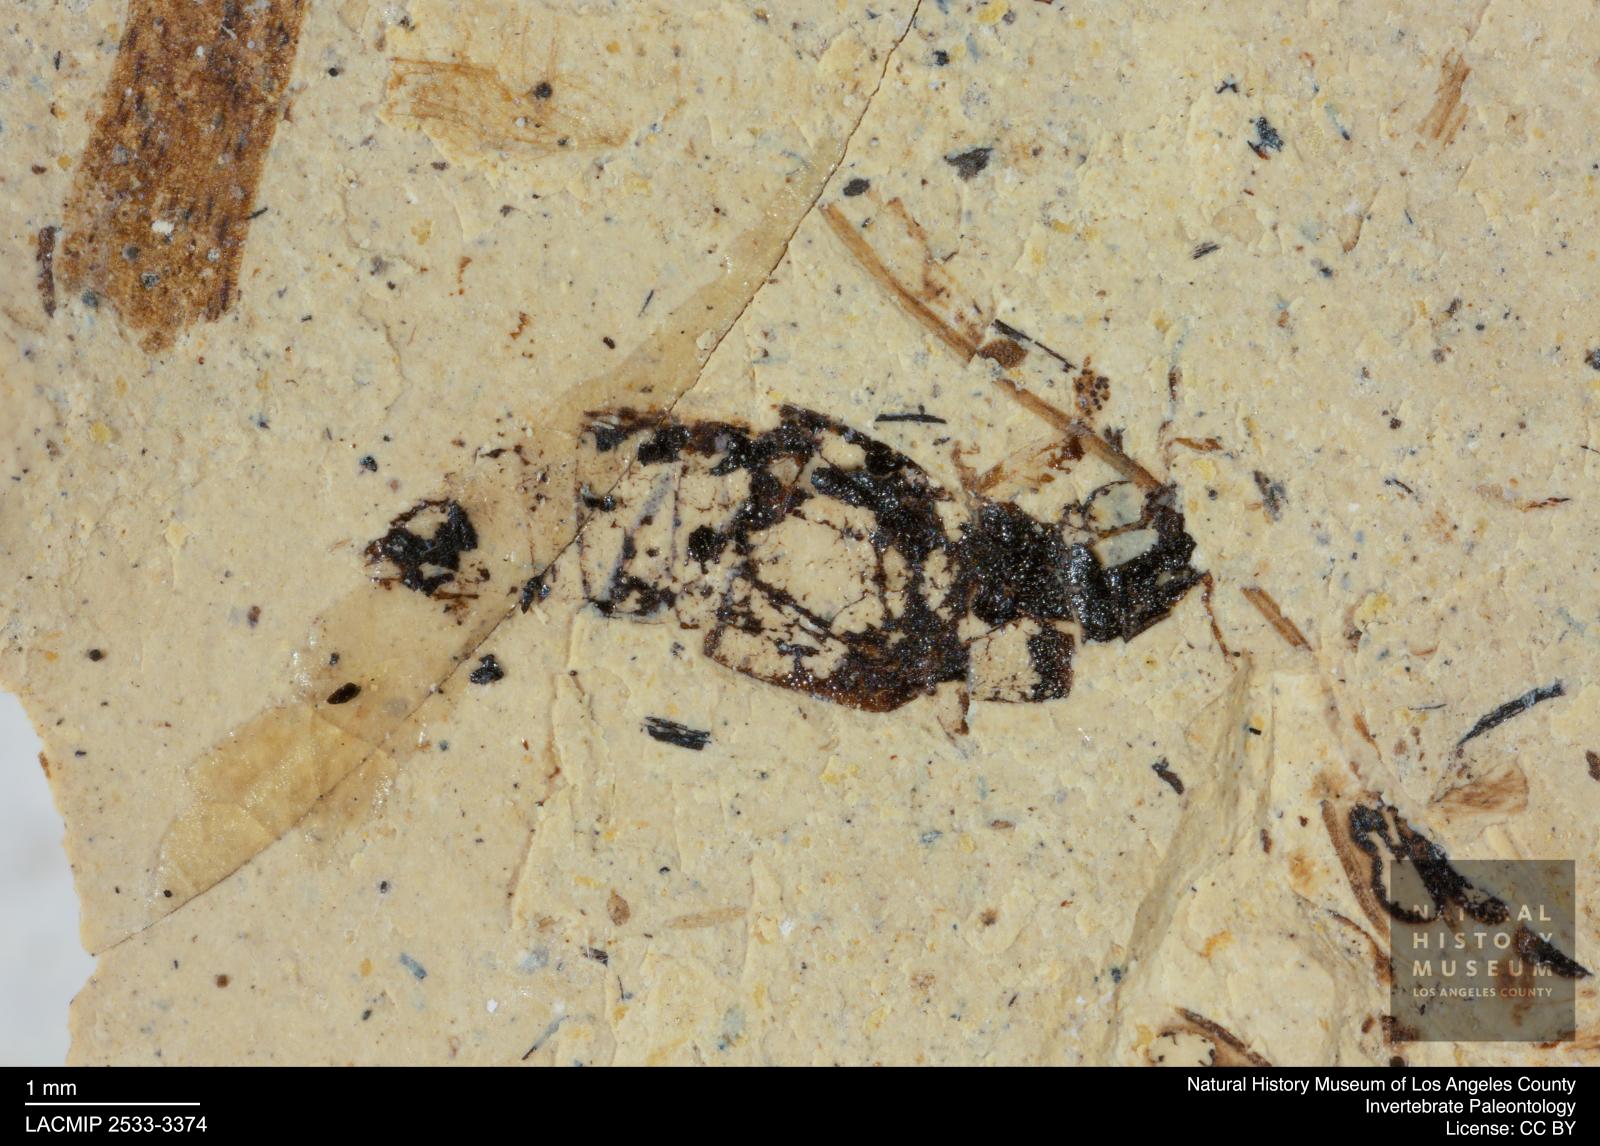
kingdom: Animalia
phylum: Arthropoda
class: Insecta
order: Coleoptera
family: Staphylinidae
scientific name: Staphylinidae
